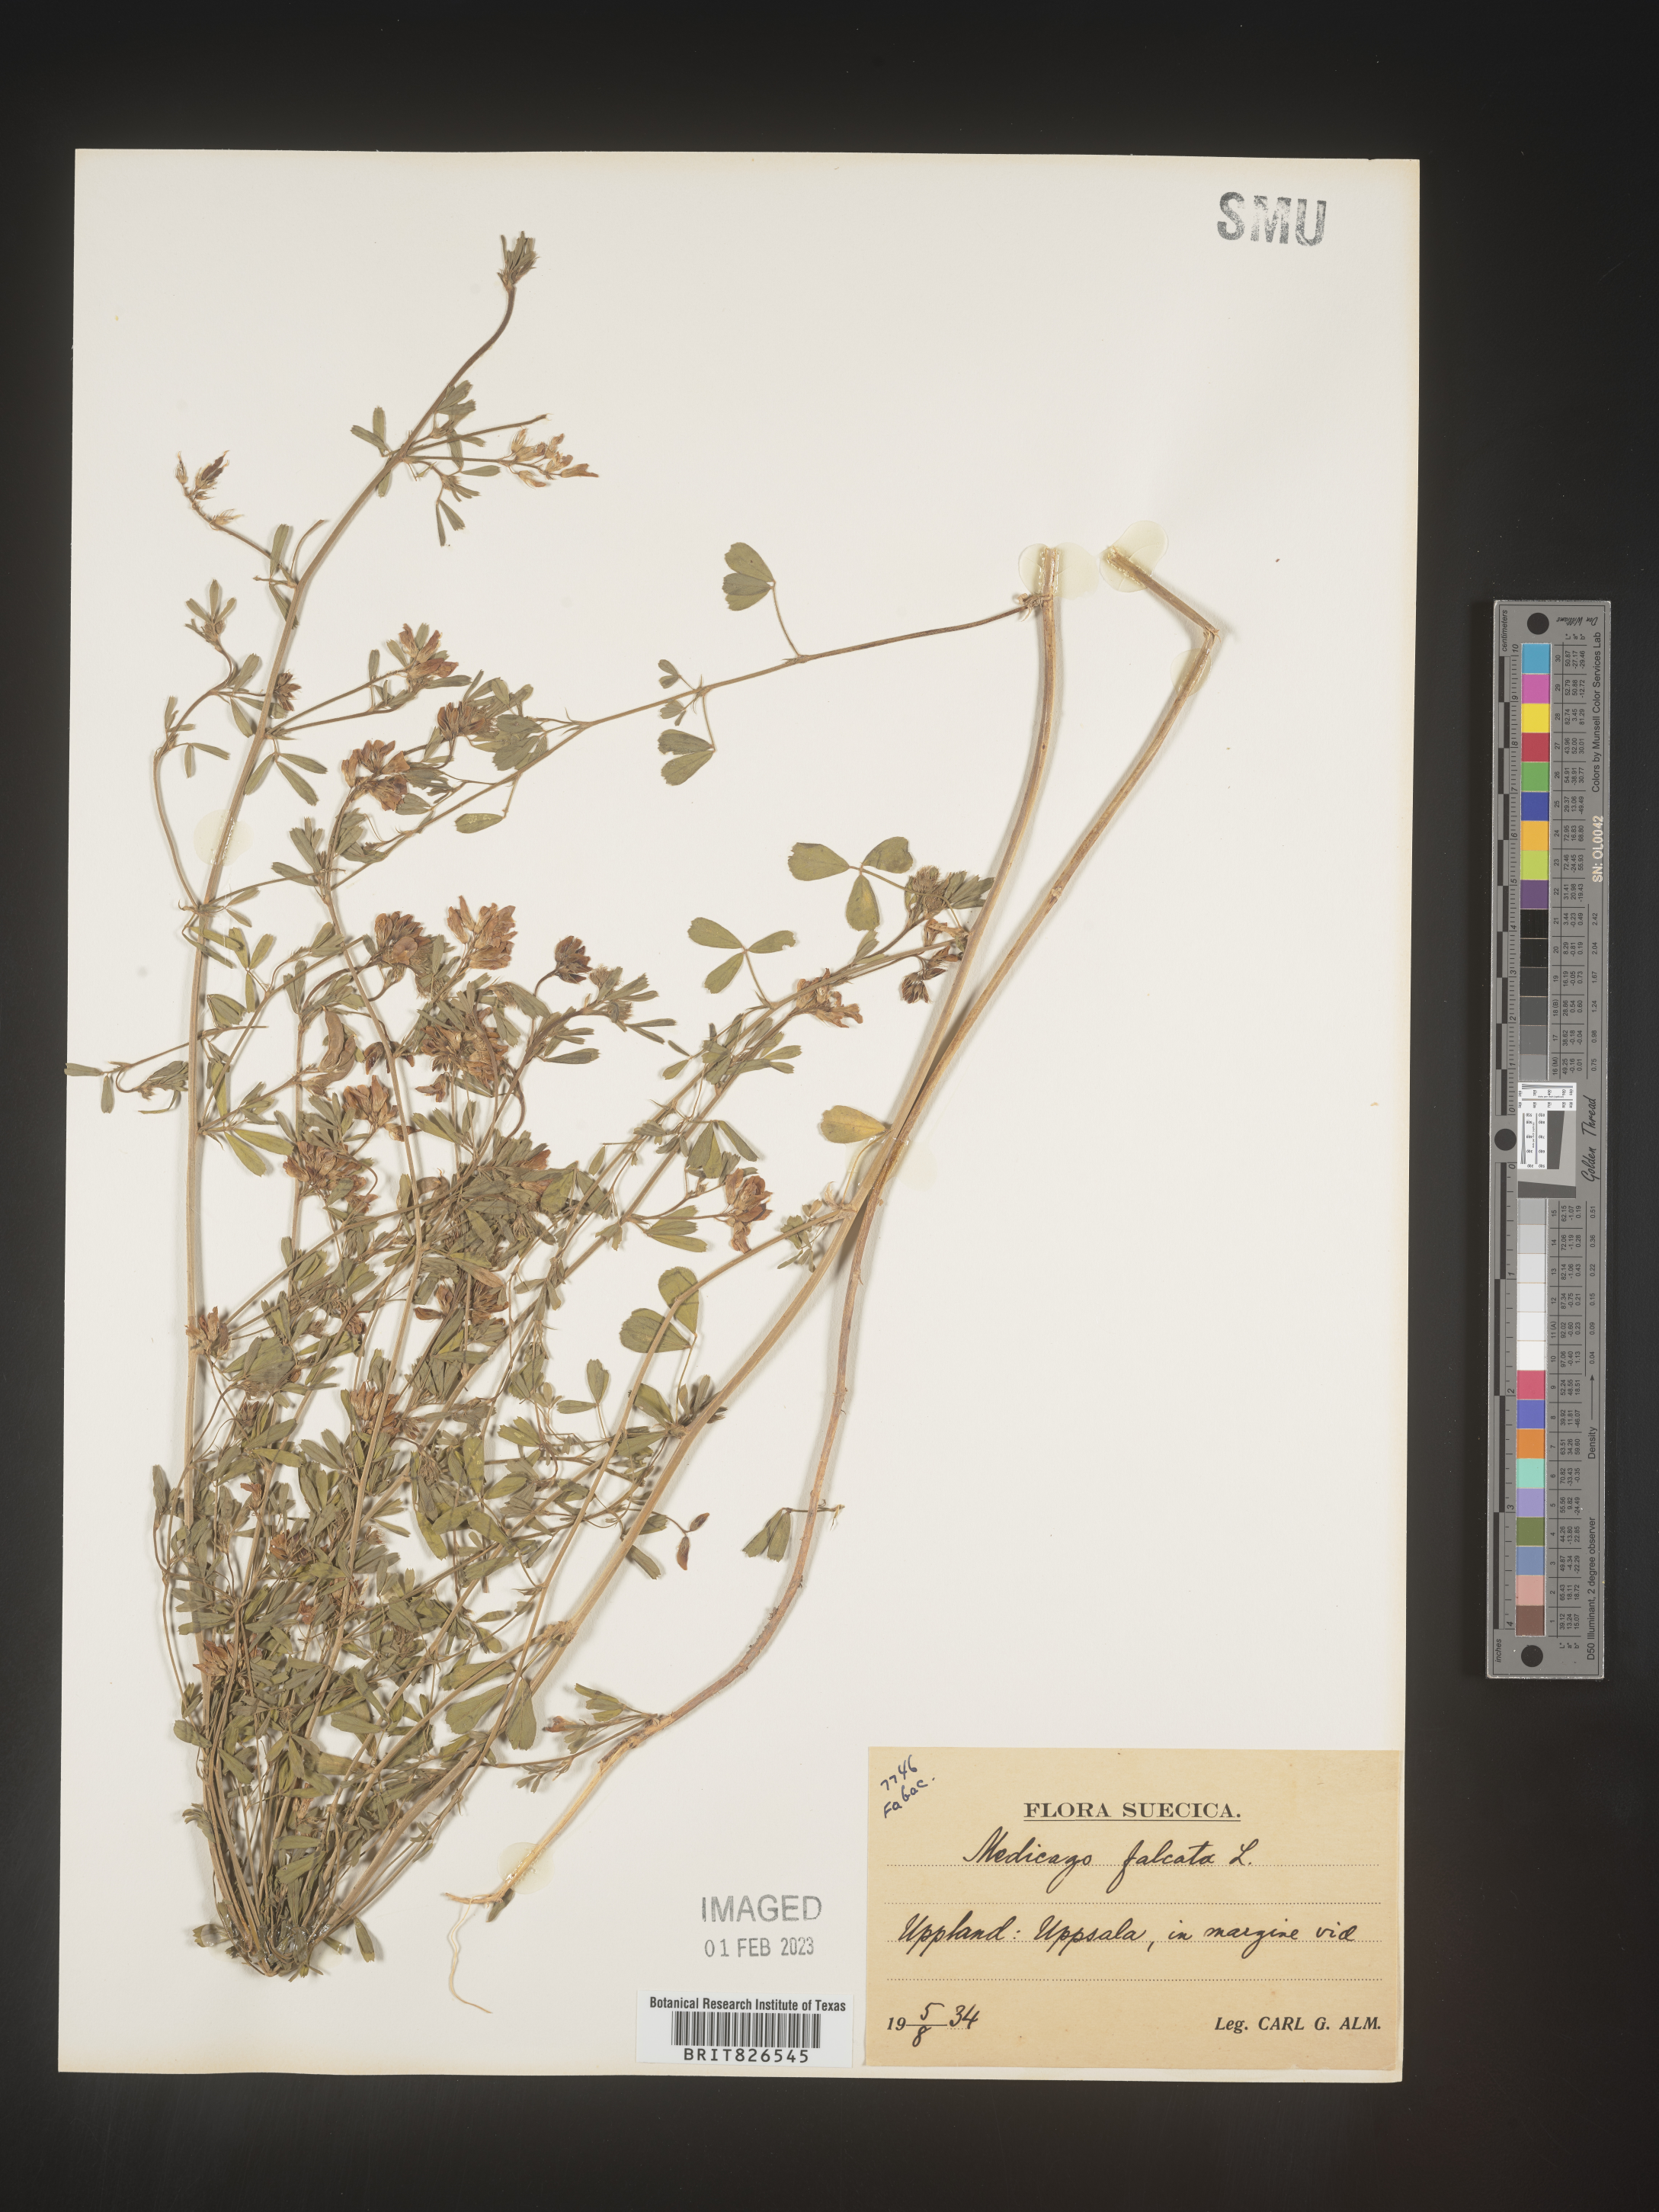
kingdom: Plantae
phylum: Tracheophyta
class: Magnoliopsida
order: Fabales
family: Fabaceae
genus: Medicago
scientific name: Medicago
